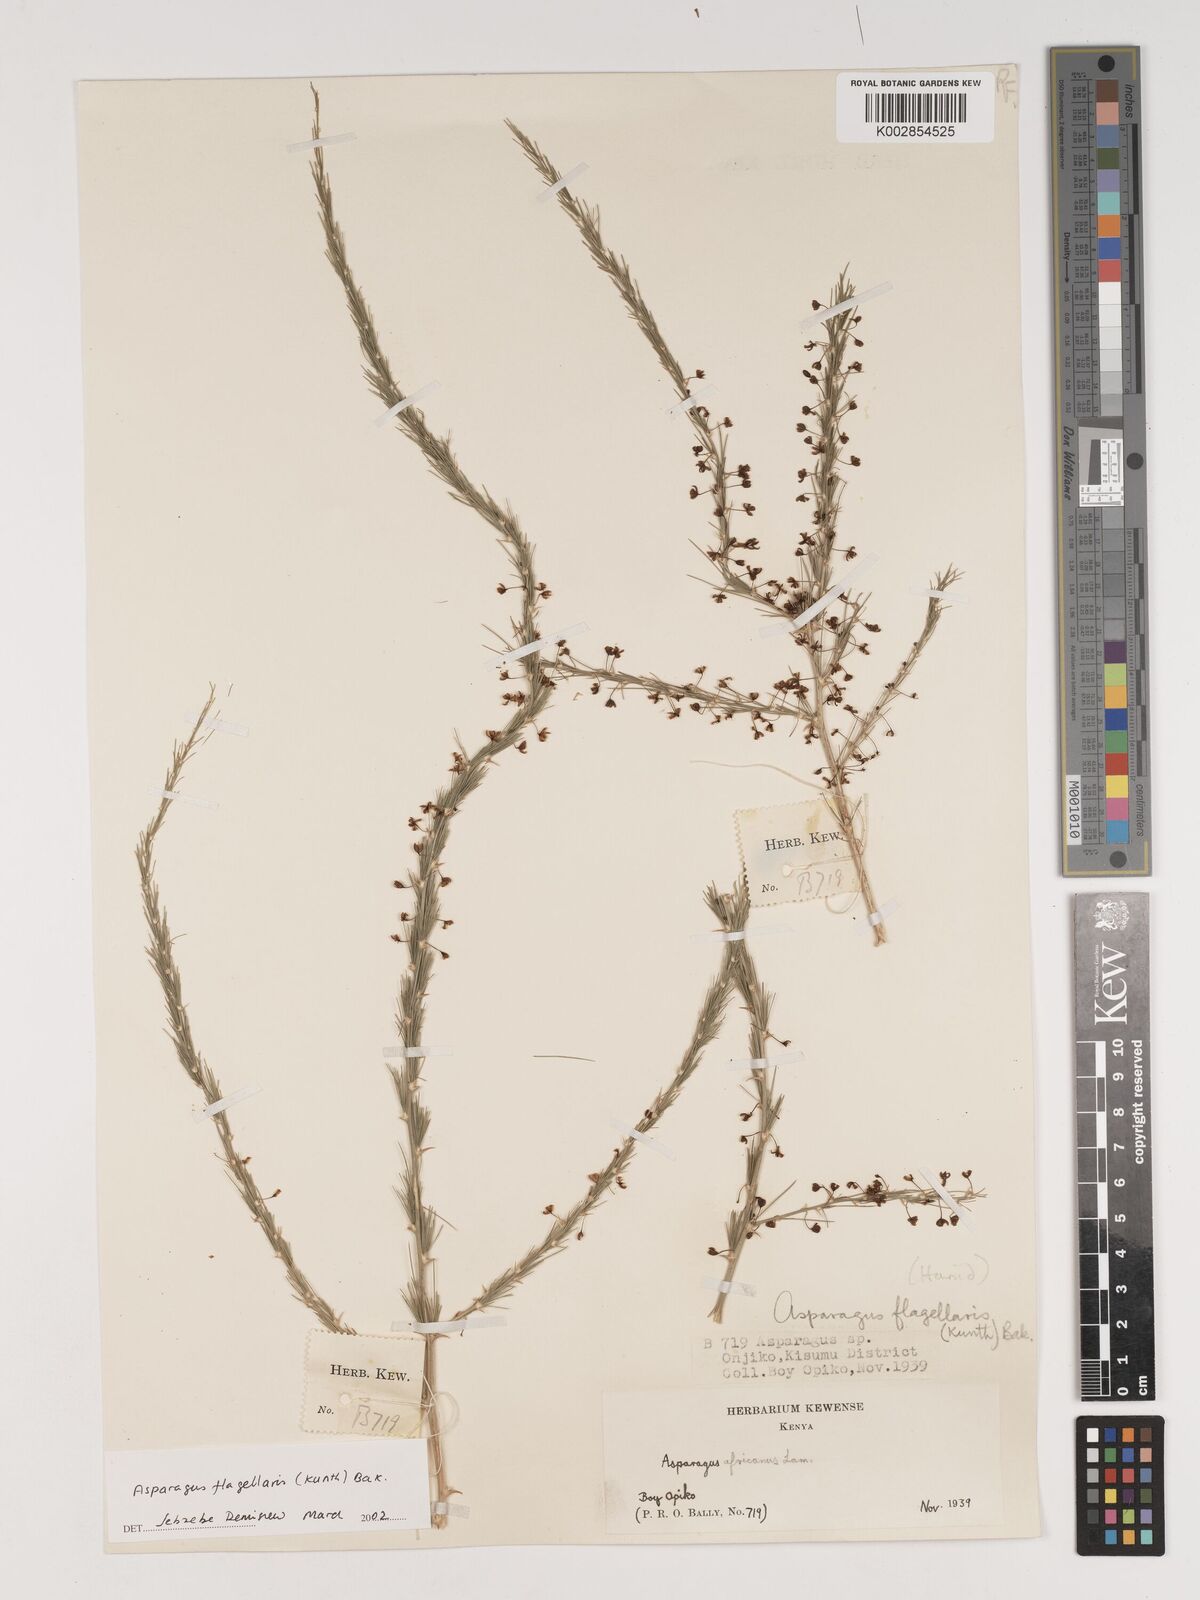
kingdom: Plantae
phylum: Tracheophyta
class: Liliopsida
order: Asparagales
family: Asparagaceae
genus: Asparagus
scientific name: Asparagus flagellaris
